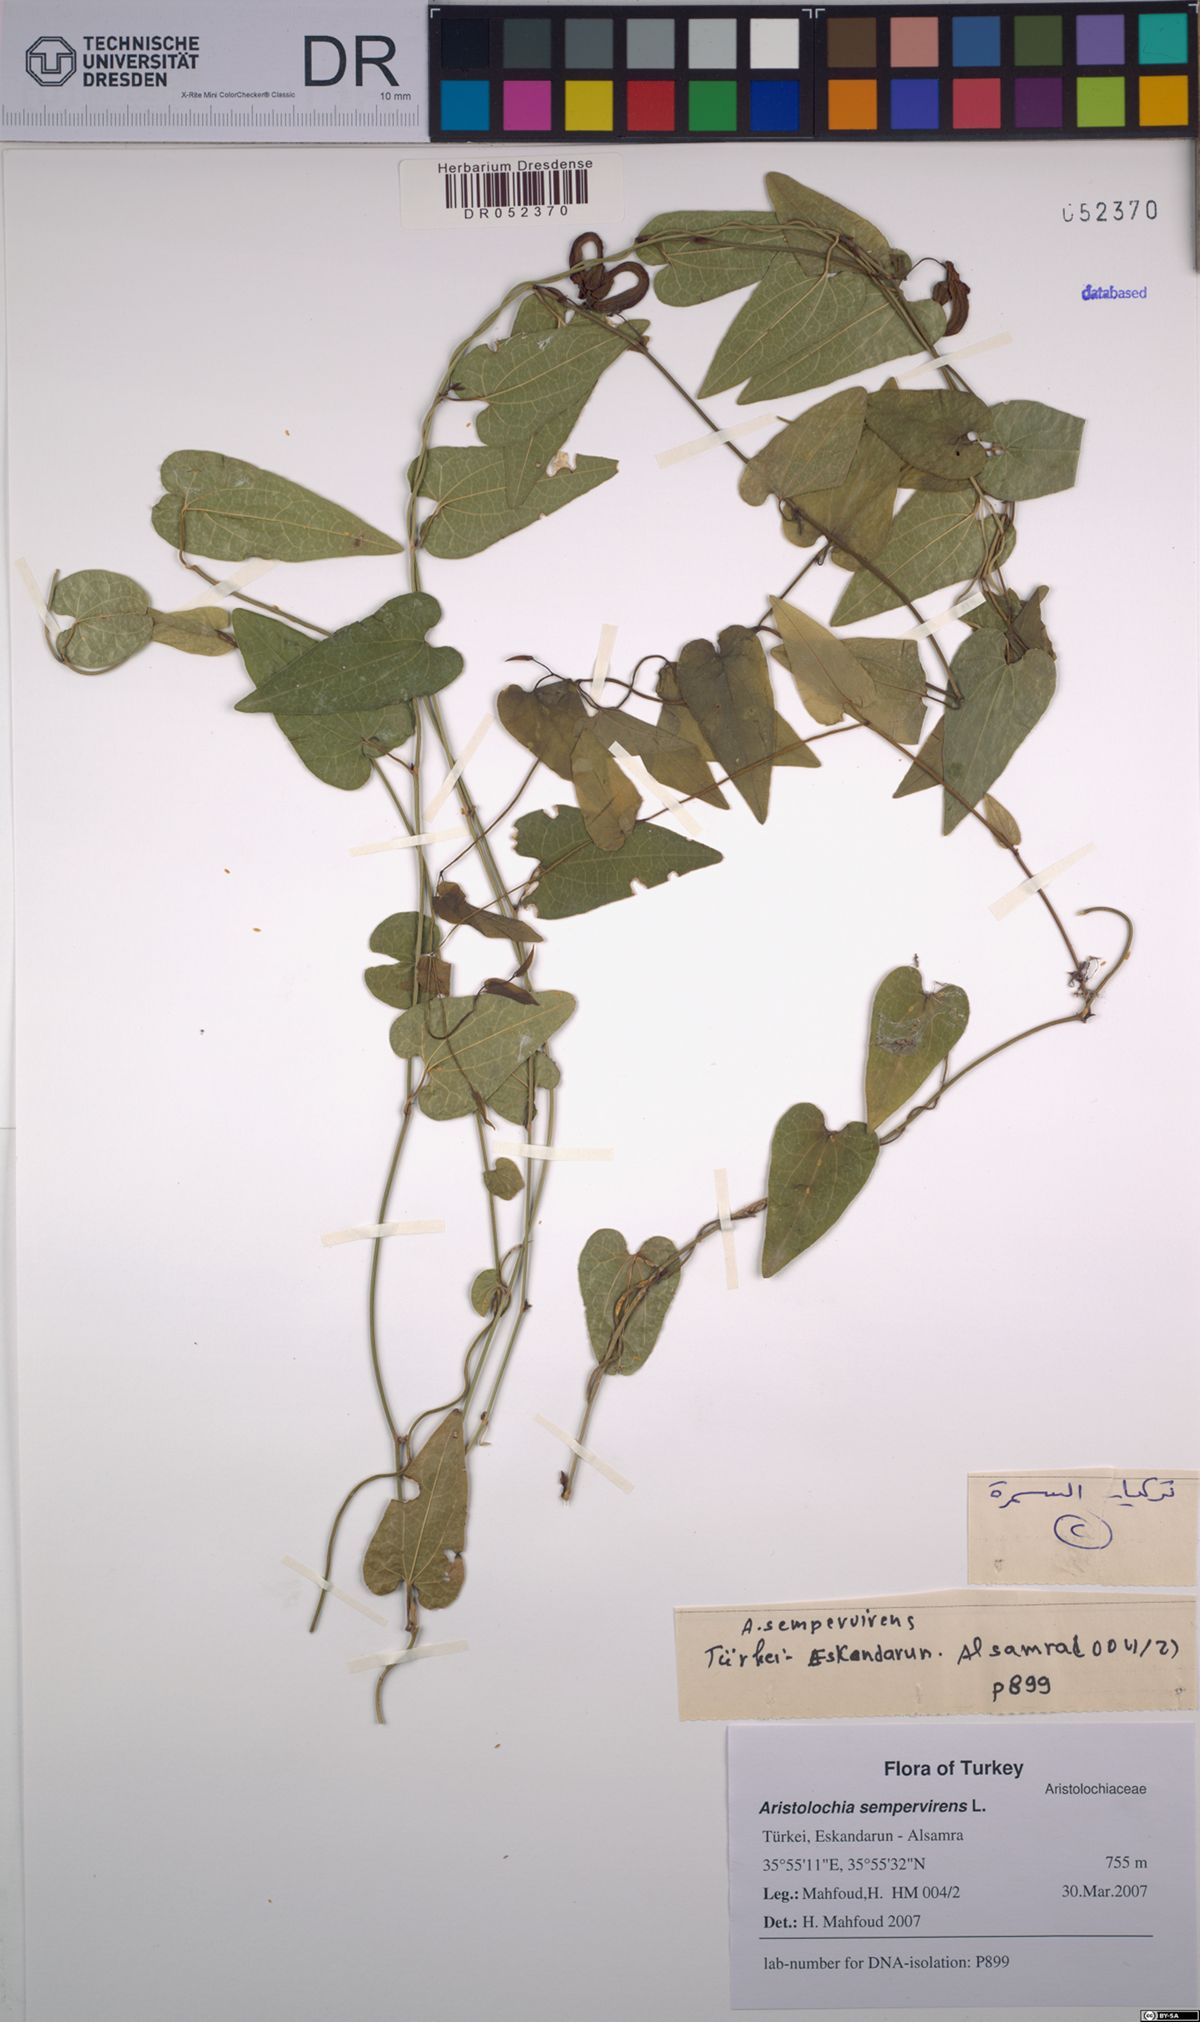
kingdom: Plantae
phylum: Tracheophyta
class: Magnoliopsida
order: Piperales
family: Aristolochiaceae
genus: Aristolochia
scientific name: Aristolochia sempervirens
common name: Long birthwort
